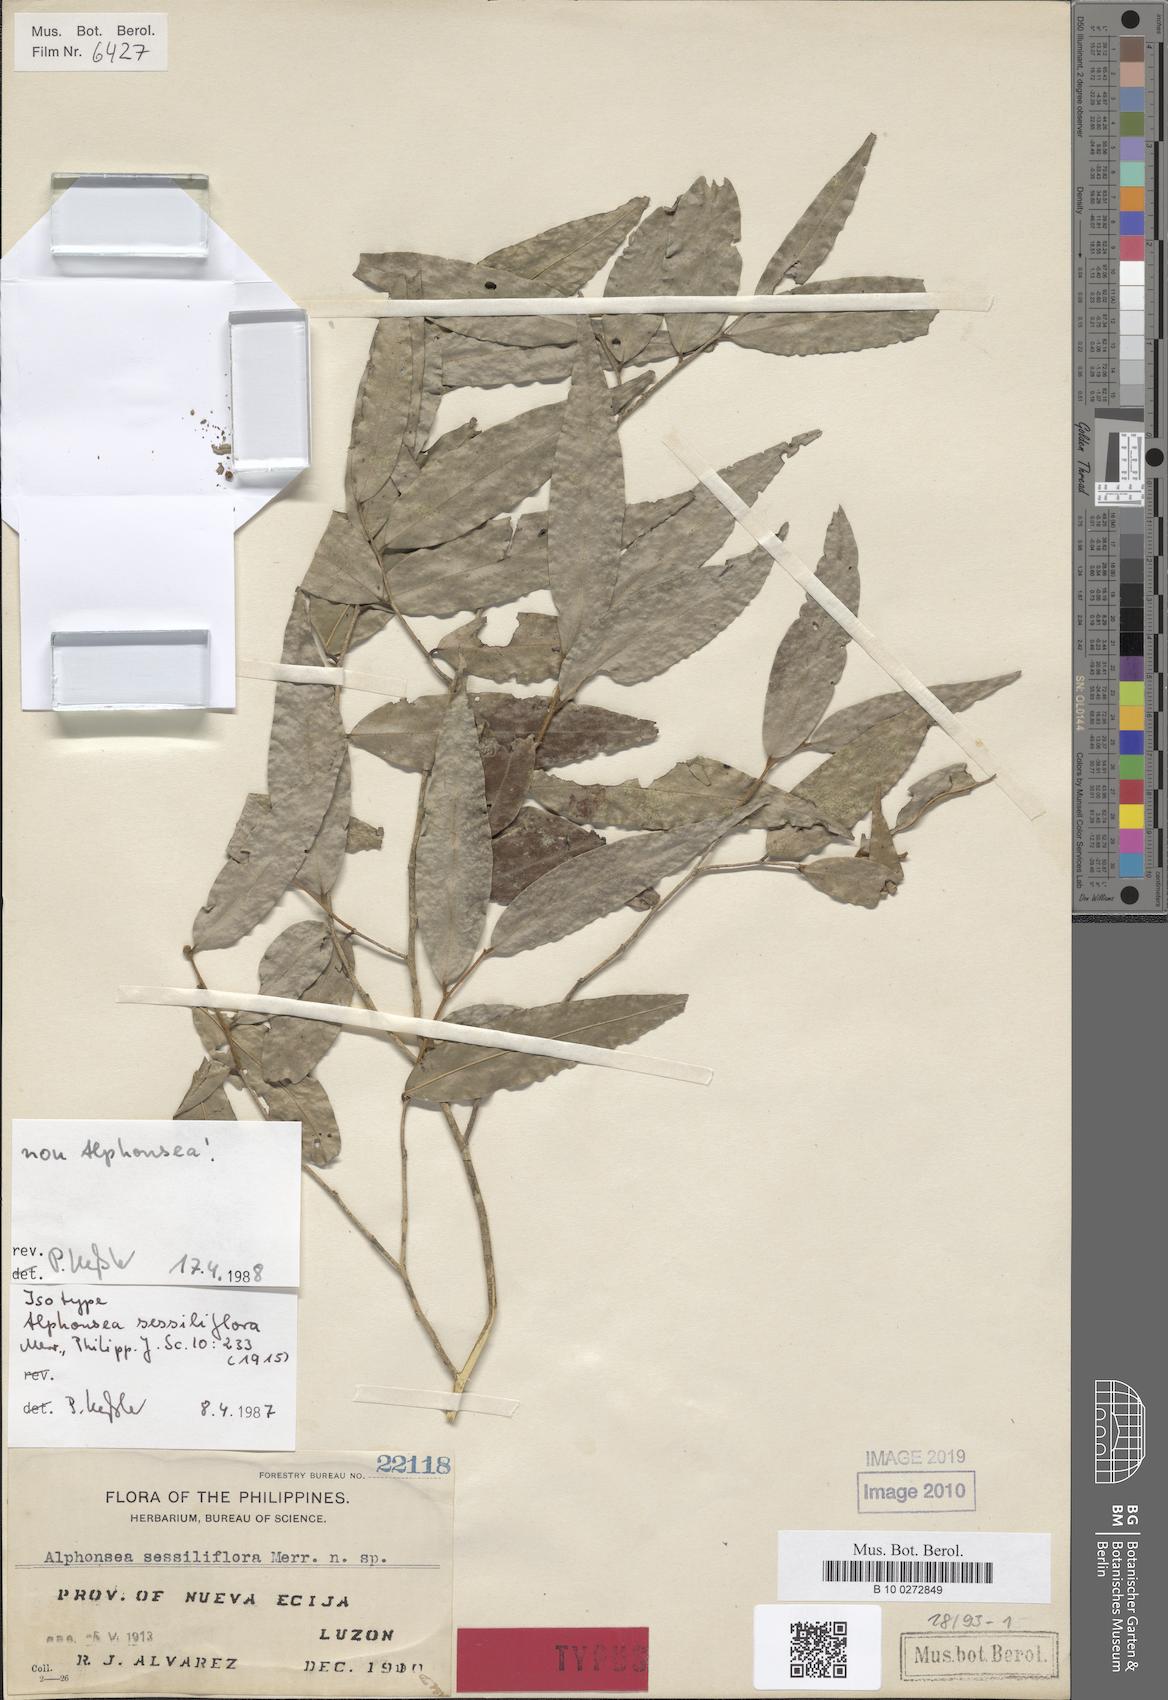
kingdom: Plantae
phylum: Tracheophyta
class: Magnoliopsida
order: Magnoliales
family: Annonaceae
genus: Meiogyne
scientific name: Meiogyne cylindrocarpa
